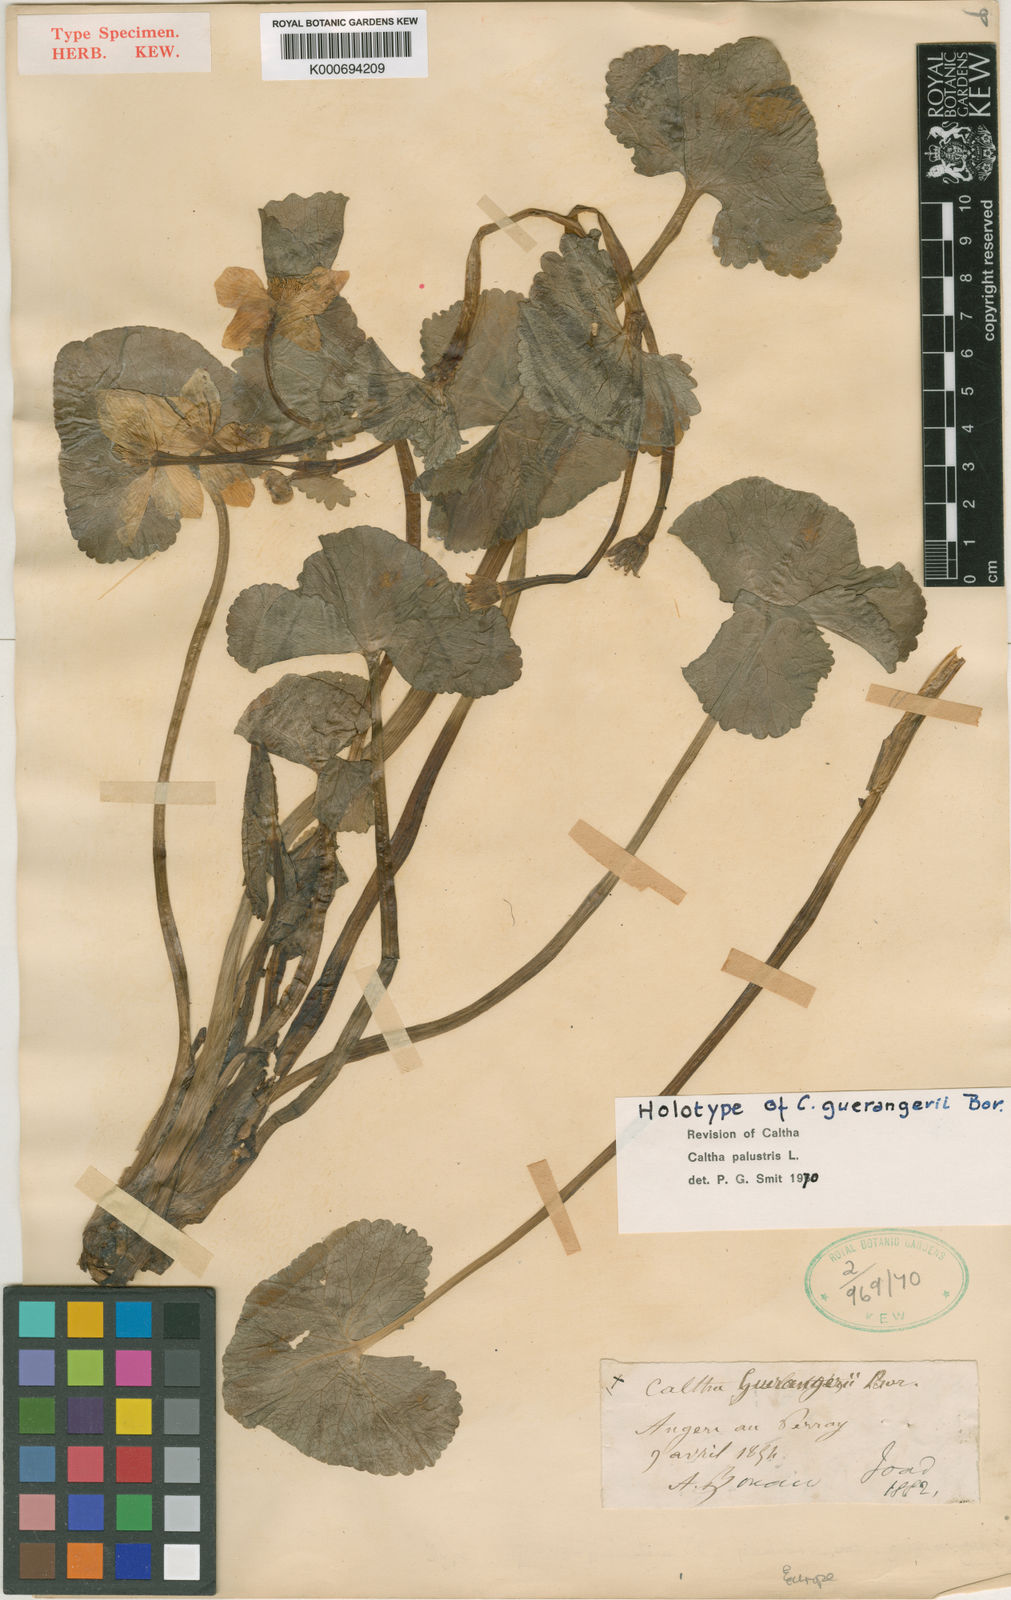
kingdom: Plantae
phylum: Tracheophyta
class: Magnoliopsida
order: Ranunculales
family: Ranunculaceae
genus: Caltha
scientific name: Caltha palustris
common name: Marsh marigold
